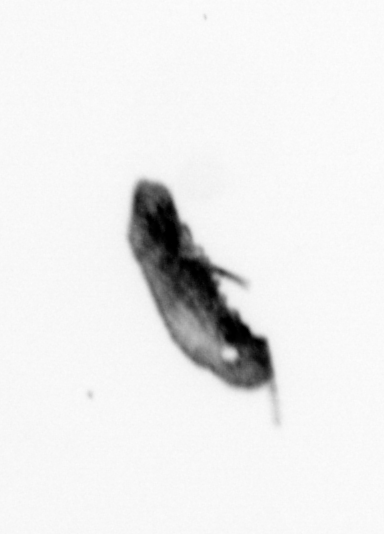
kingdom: Animalia
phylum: Annelida
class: Polychaeta
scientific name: Polychaeta
